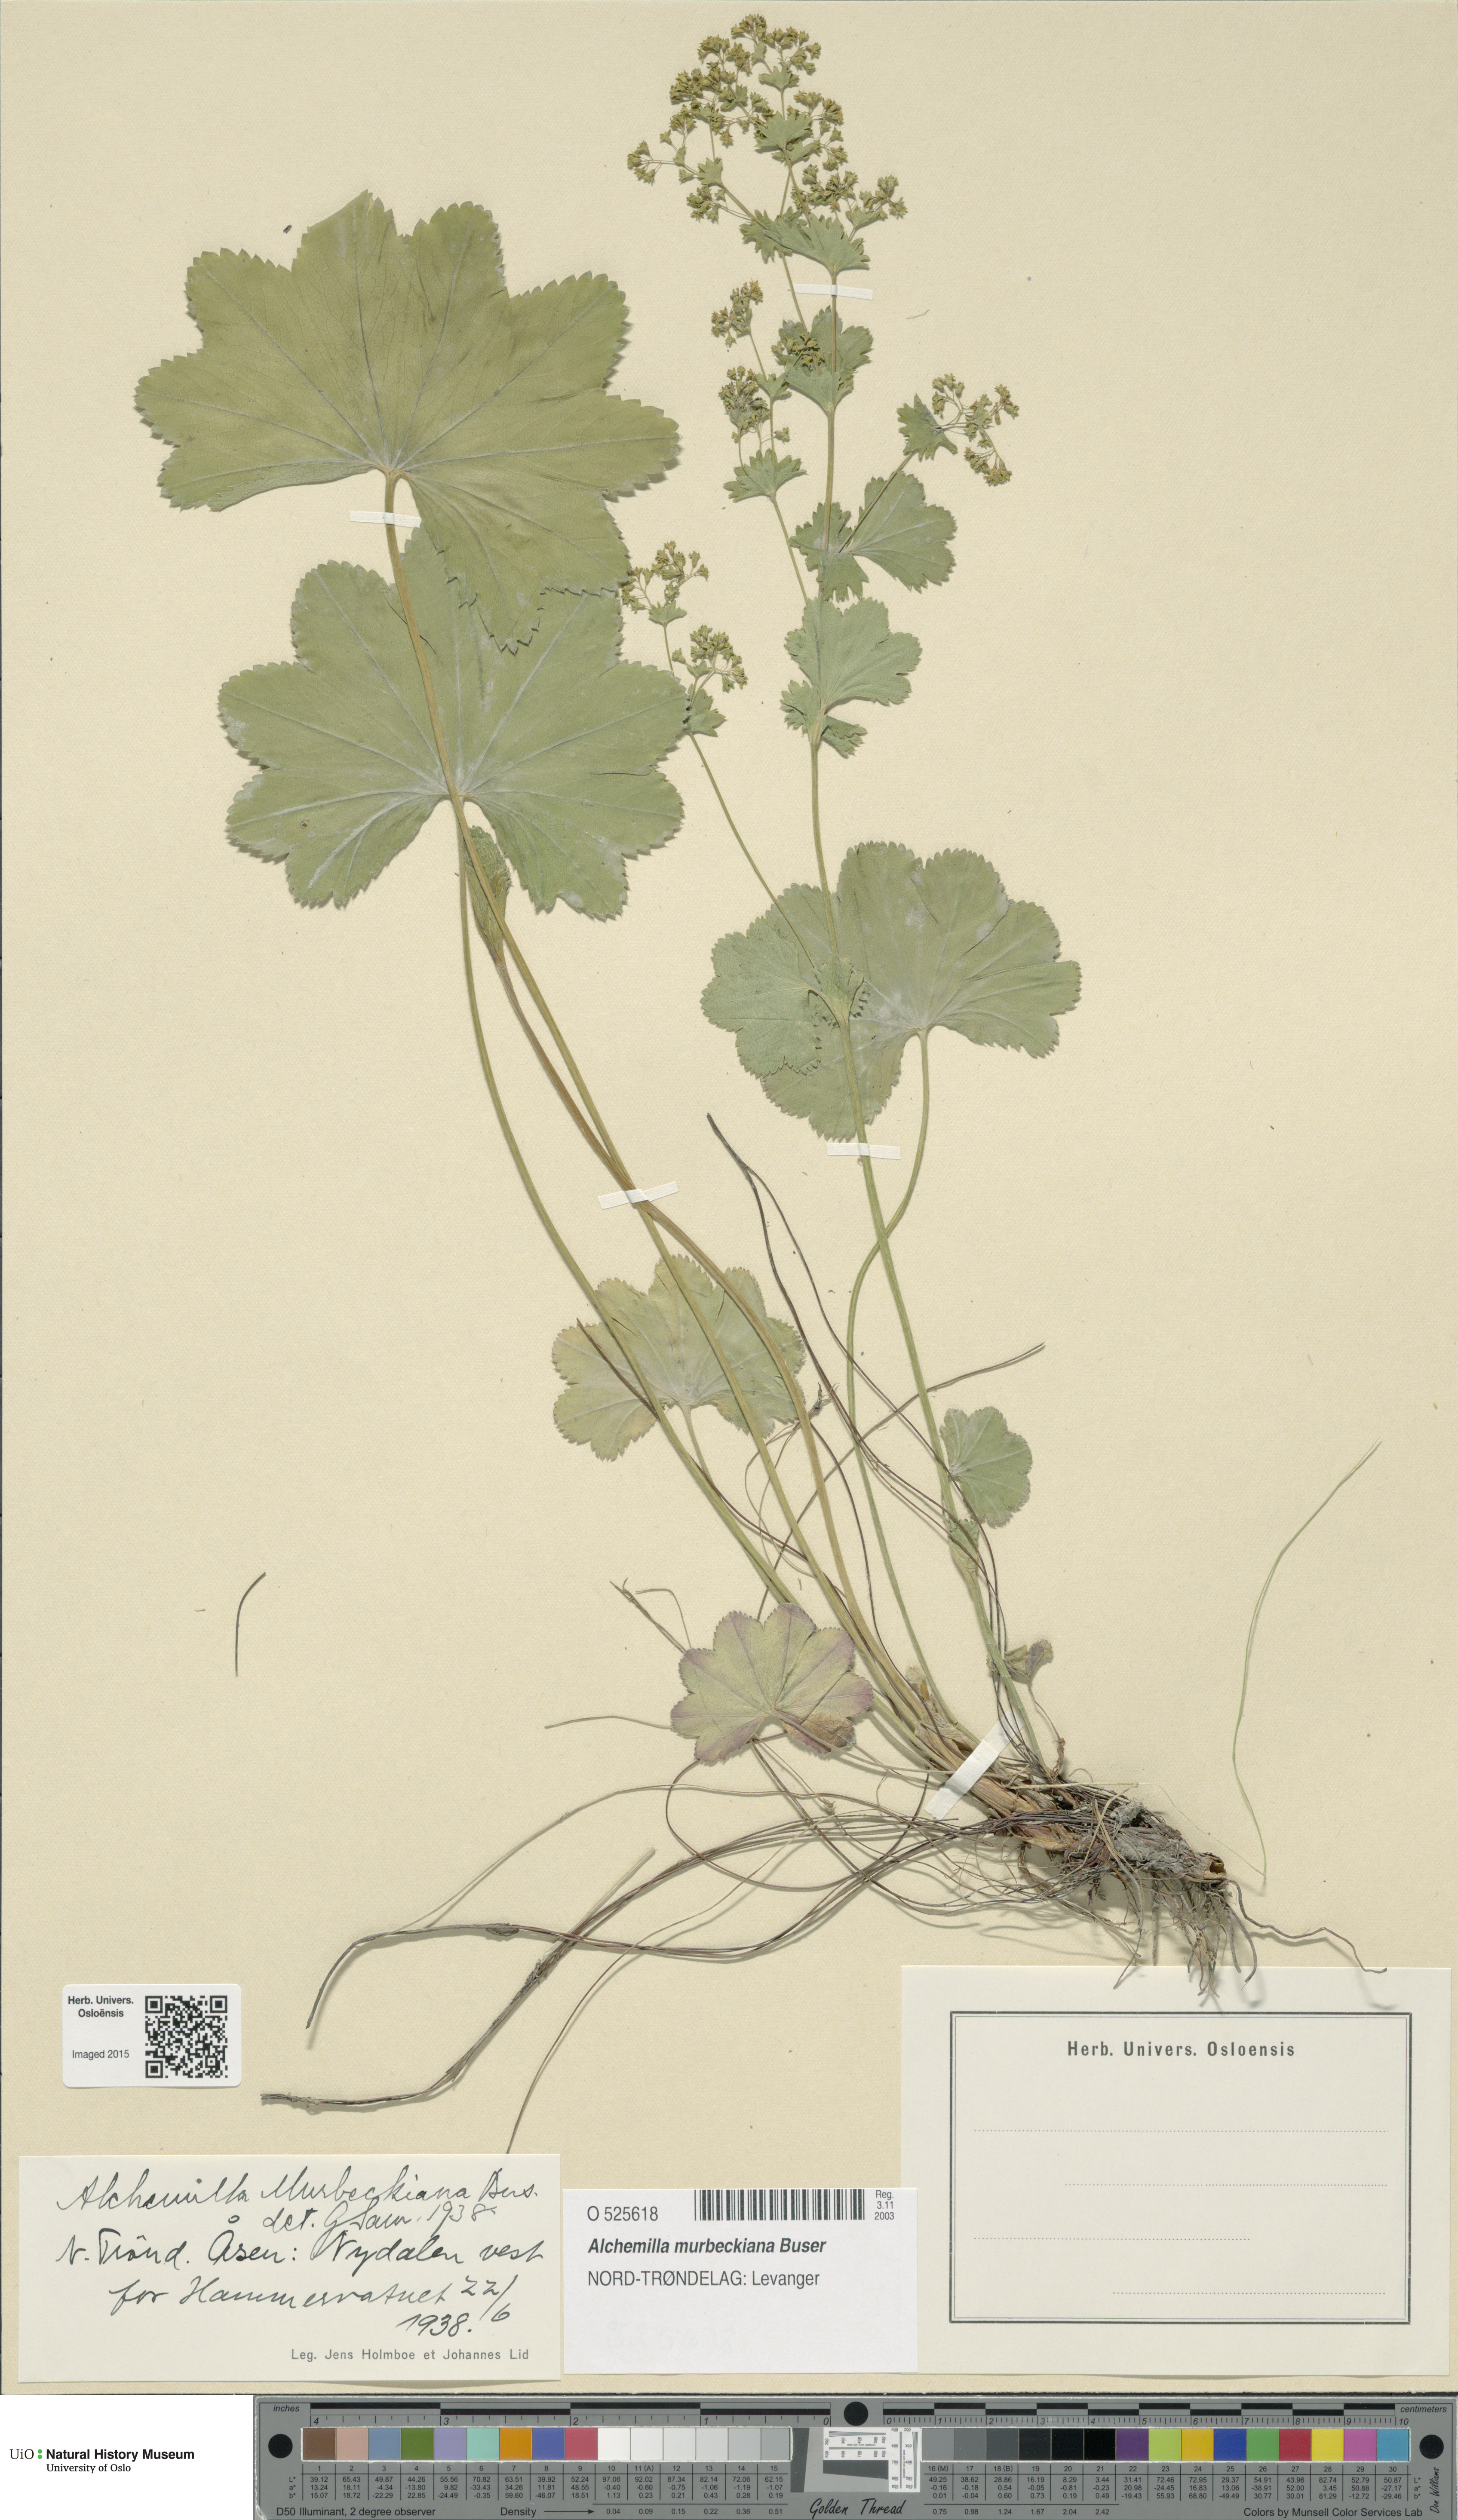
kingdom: Plantae
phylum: Tracheophyta
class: Magnoliopsida
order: Rosales
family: Rosaceae
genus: Alchemilla
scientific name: Alchemilla murbeckiana
